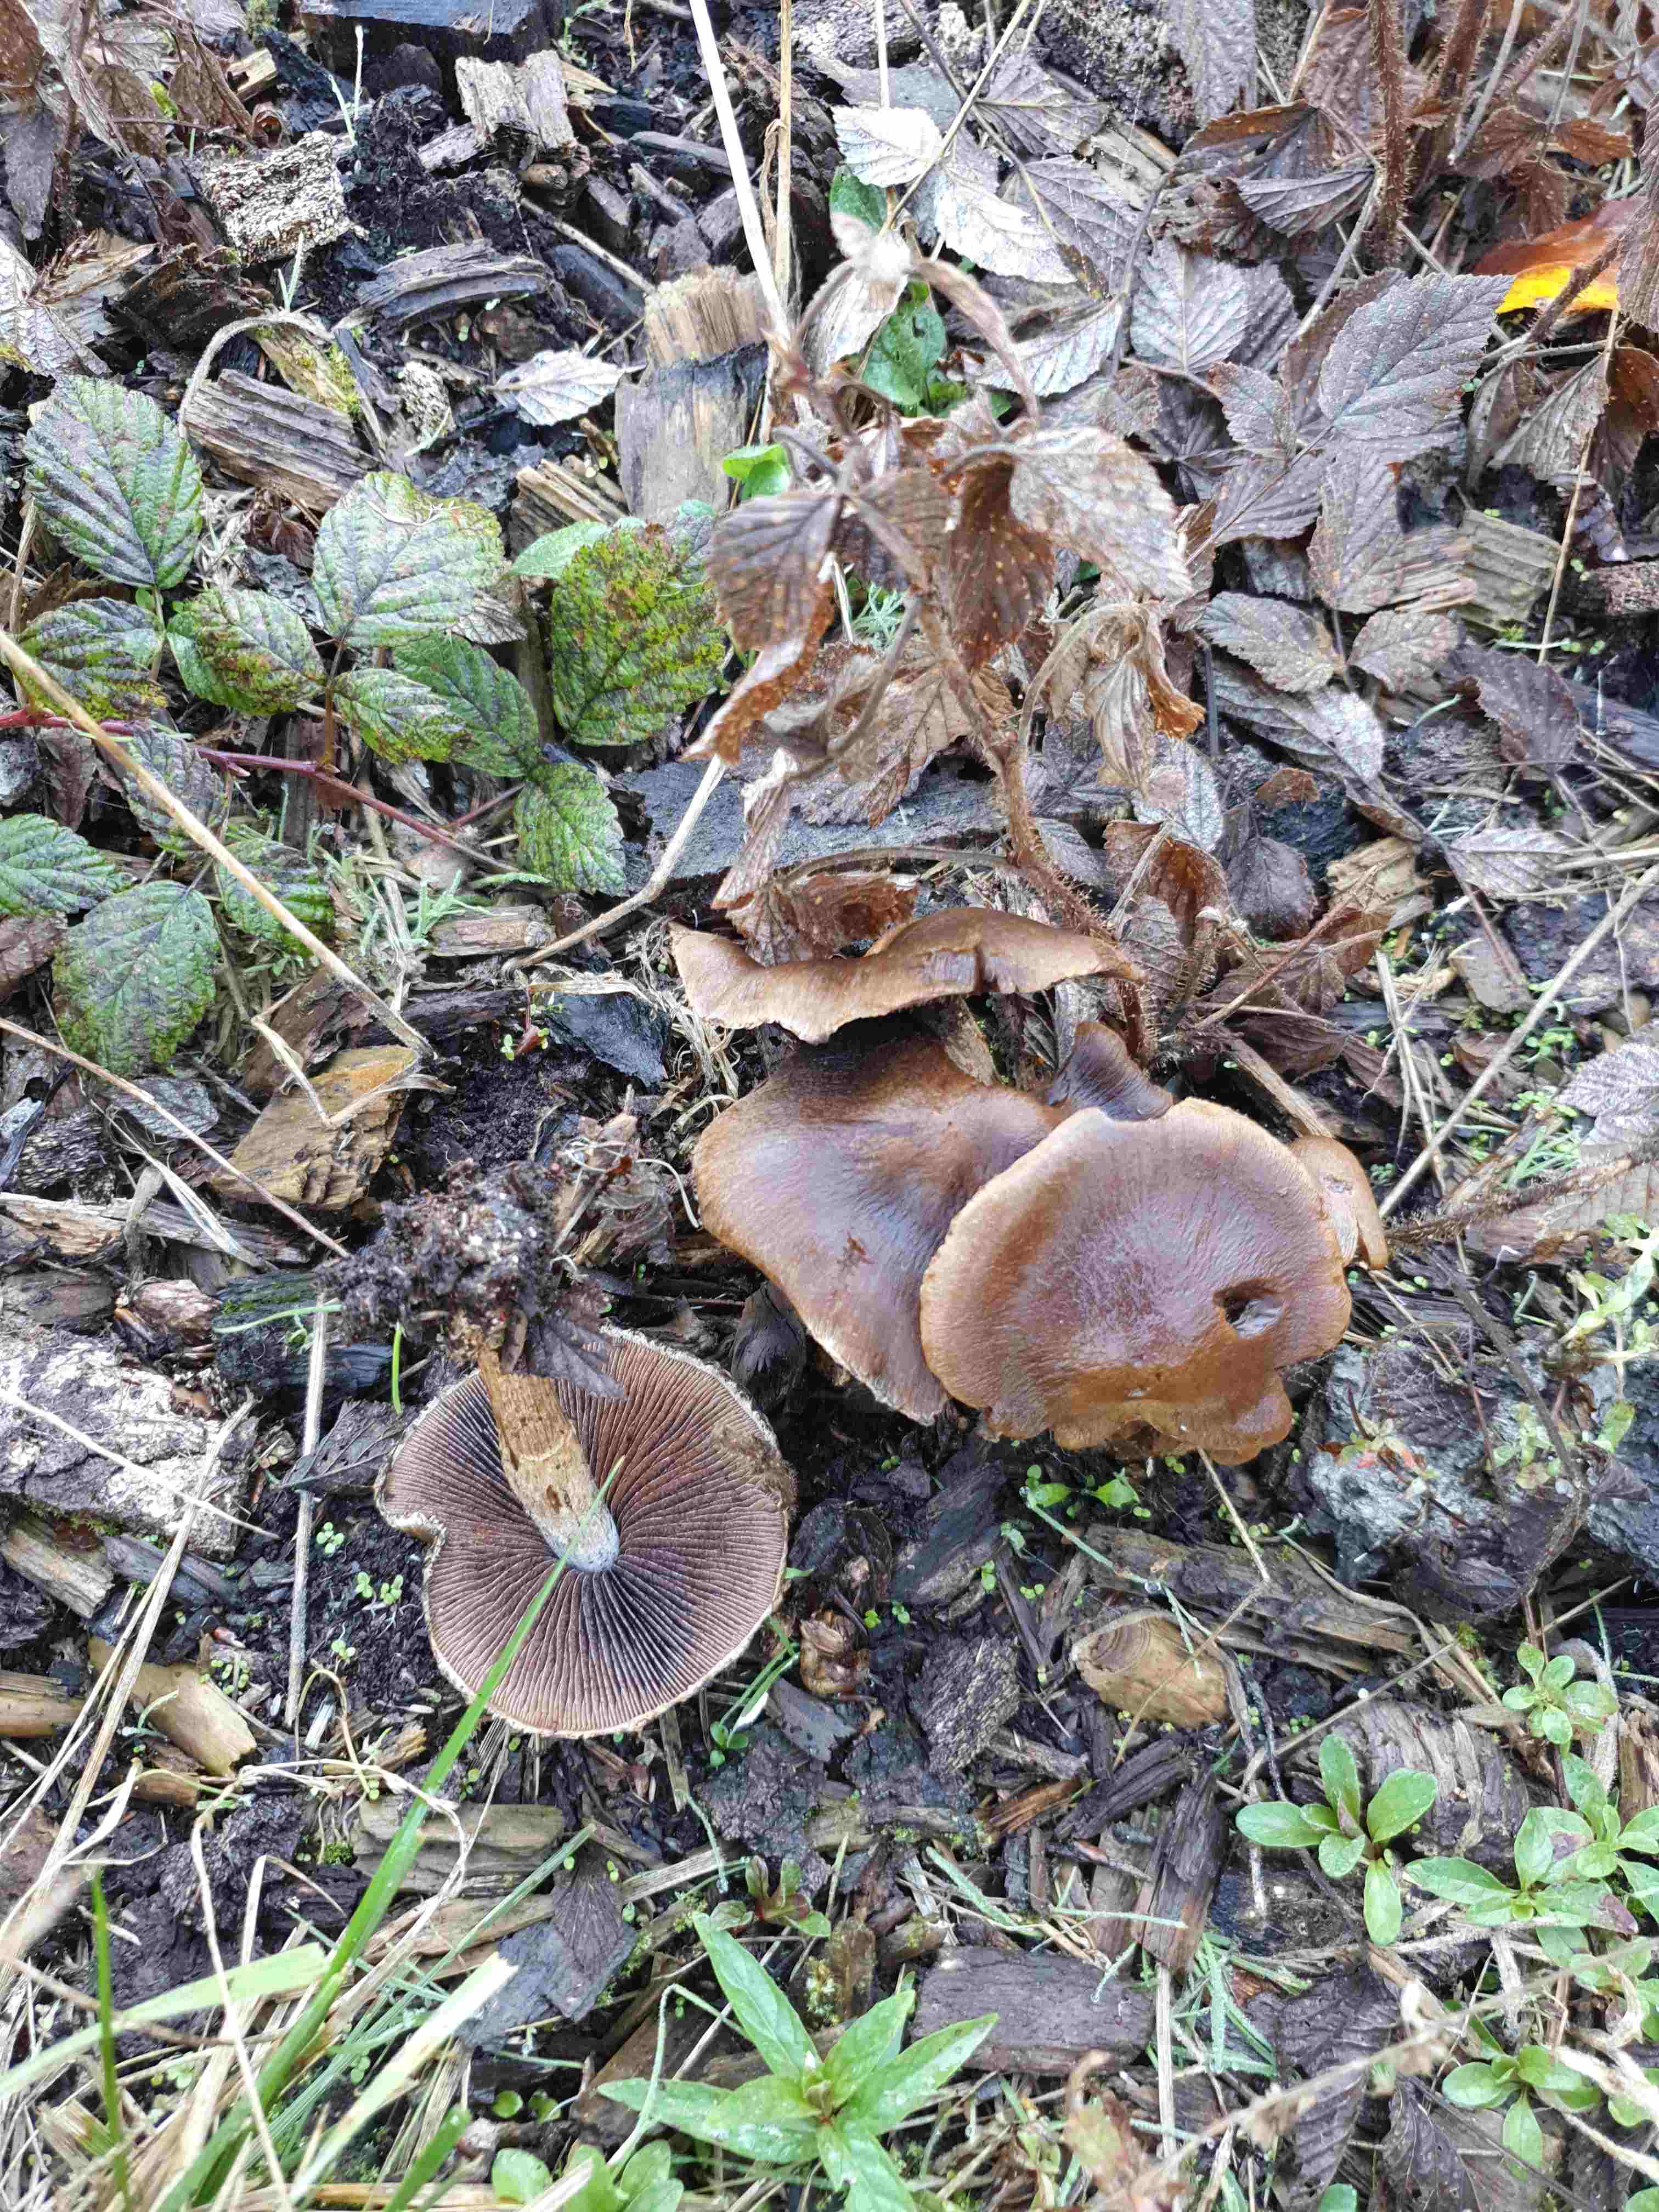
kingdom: Fungi
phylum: Basidiomycota
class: Agaricomycetes
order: Agaricales
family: Psathyrellaceae
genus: Lacrymaria
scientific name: Lacrymaria lacrymabunda
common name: grædende mørkhat
